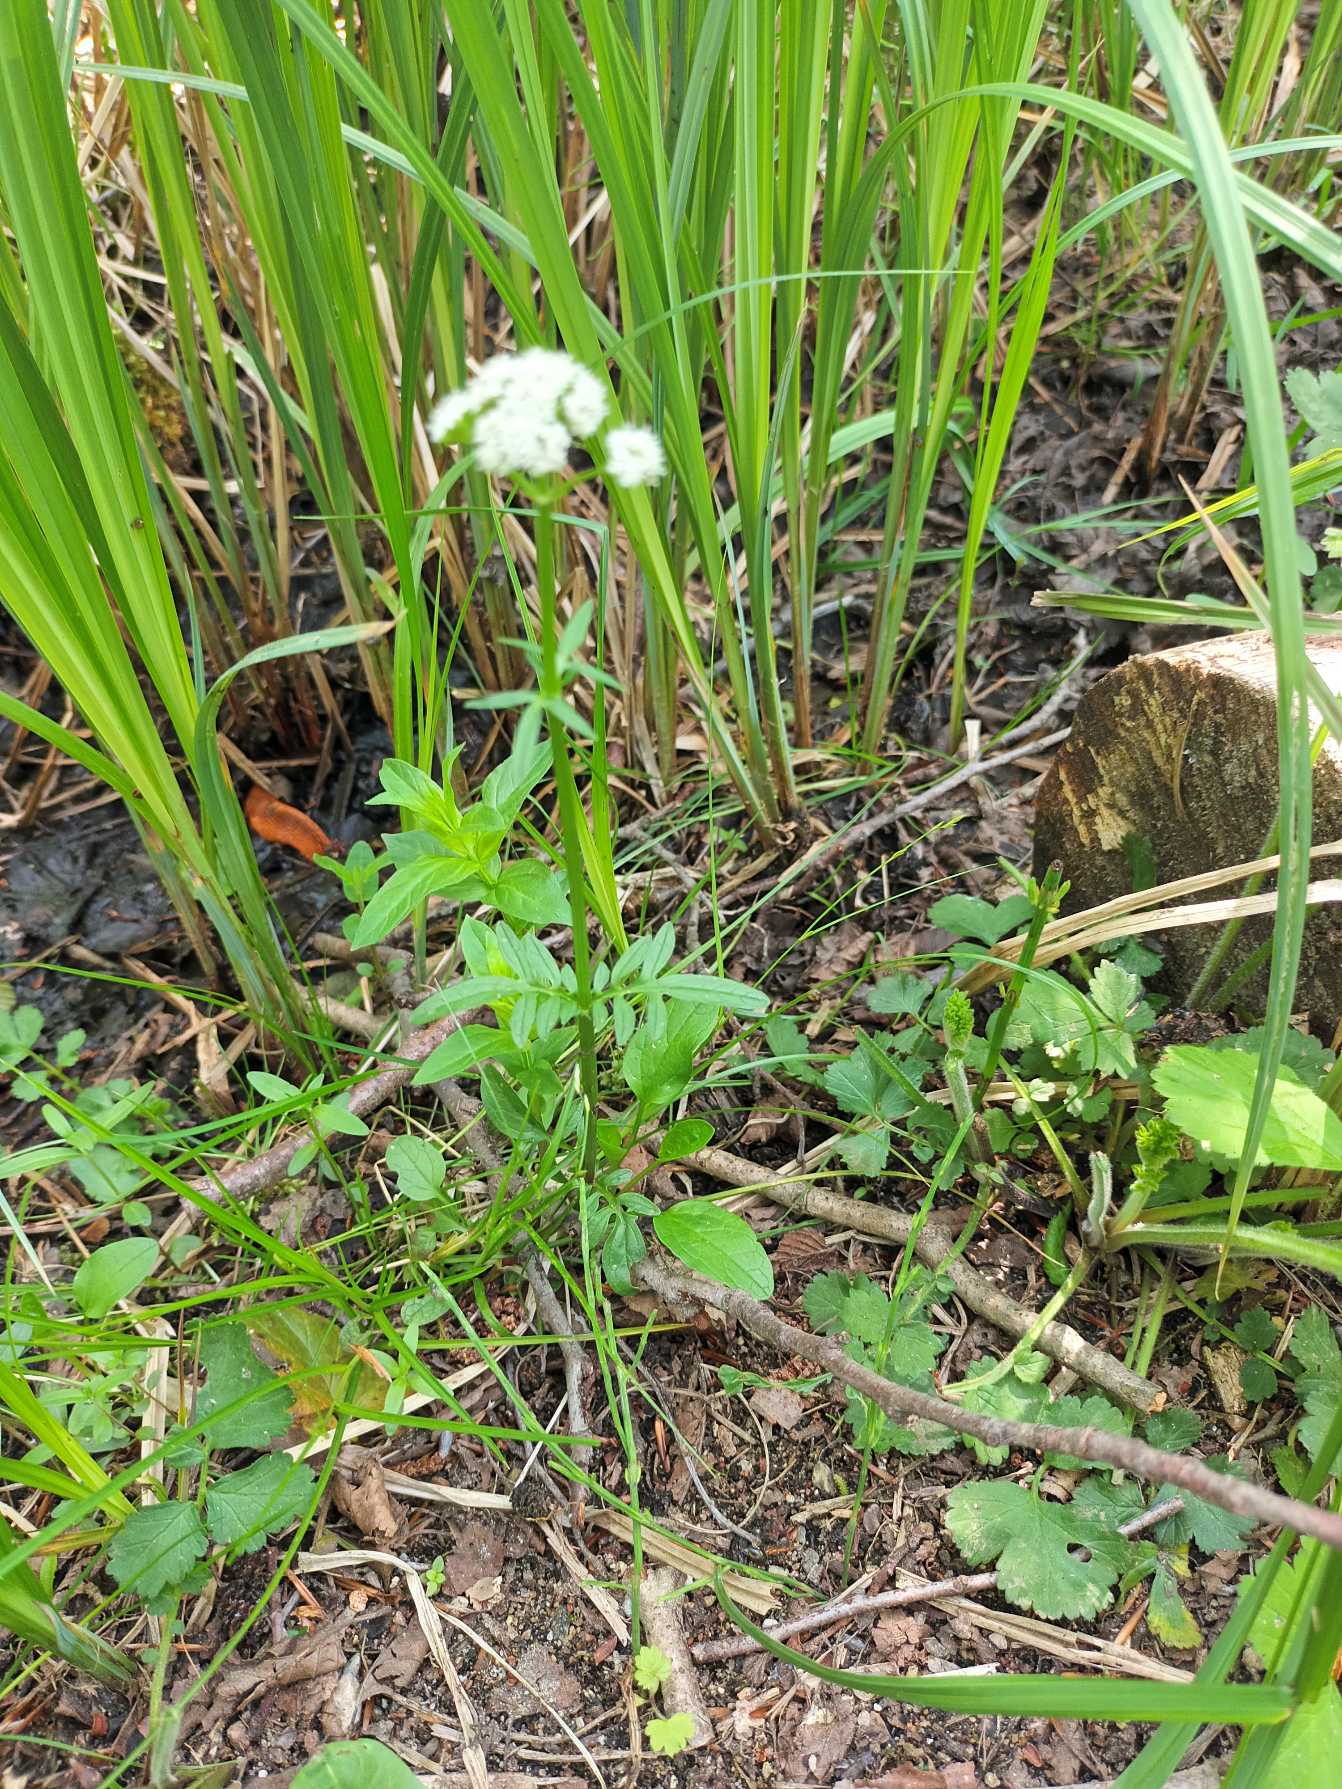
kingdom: Plantae
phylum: Tracheophyta
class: Magnoliopsida
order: Dipsacales
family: Caprifoliaceae
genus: Valeriana
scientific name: Valeriana dioica
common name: Tvebo baldrian
